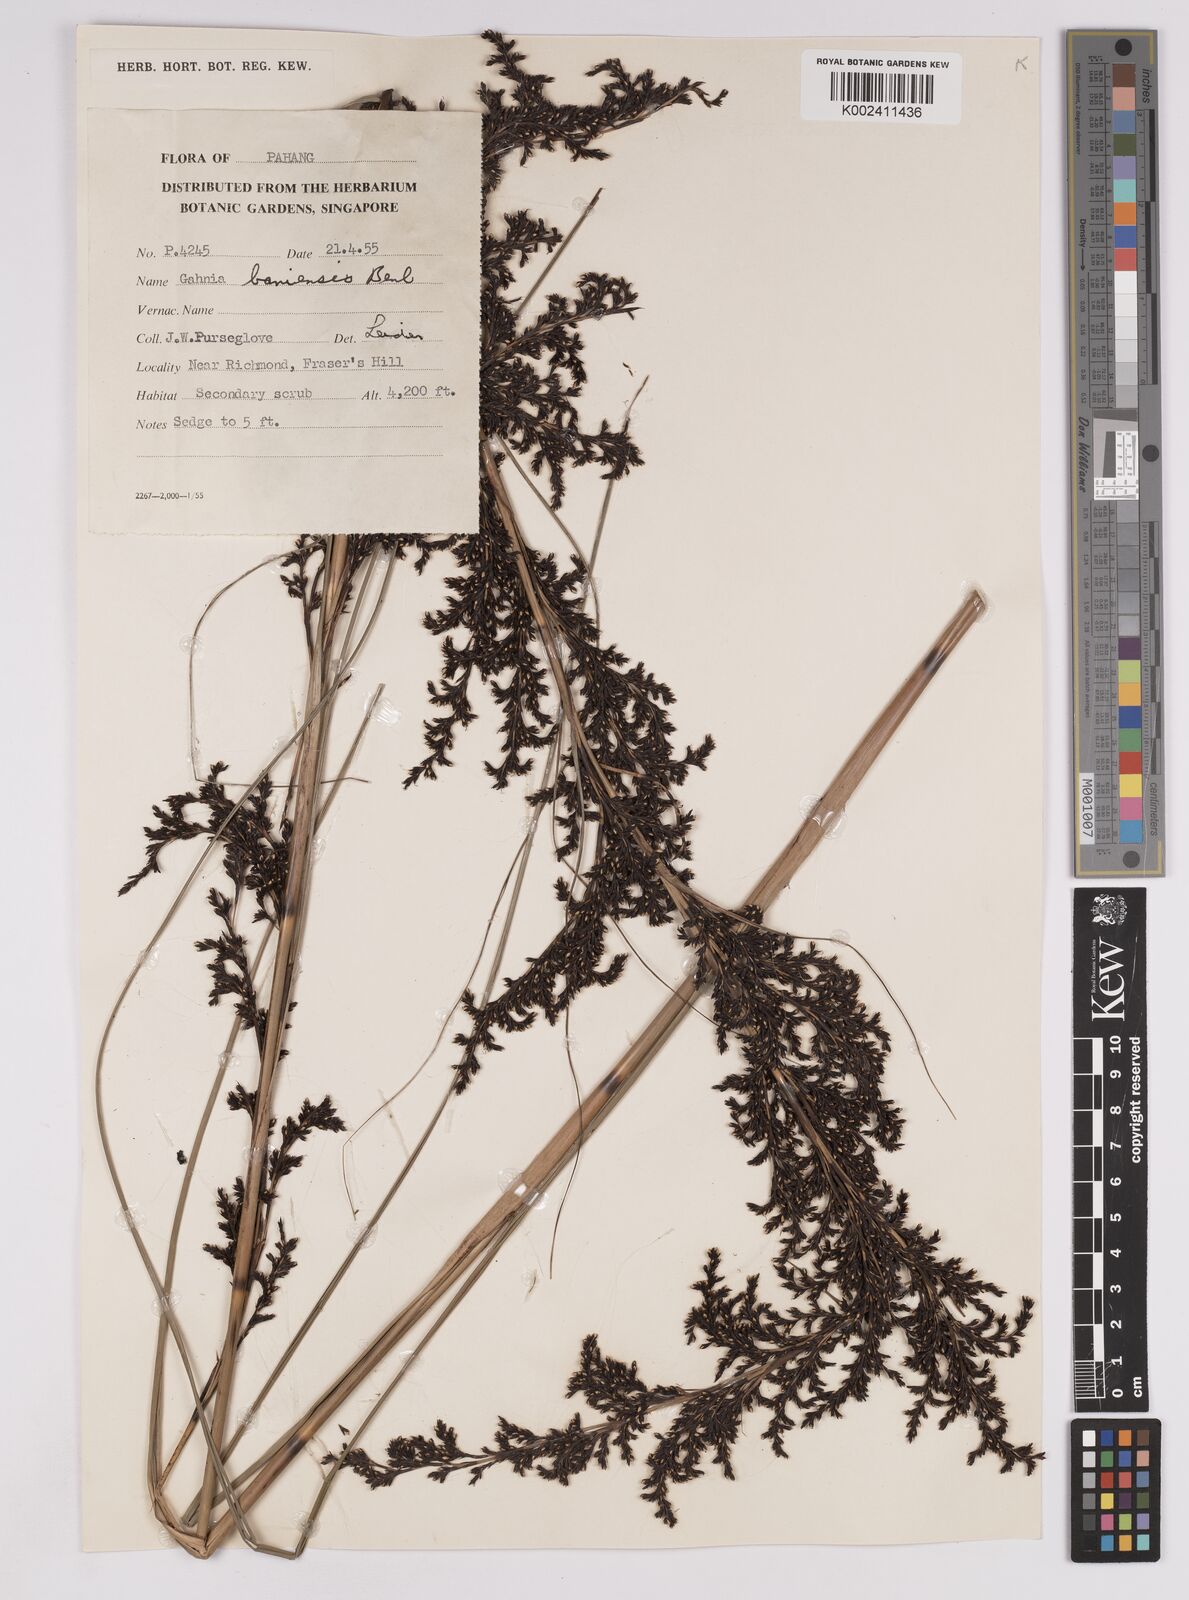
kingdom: Plantae
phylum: Tracheophyta
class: Liliopsida
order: Poales
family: Cyperaceae
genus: Gahnia
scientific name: Gahnia baniensis
